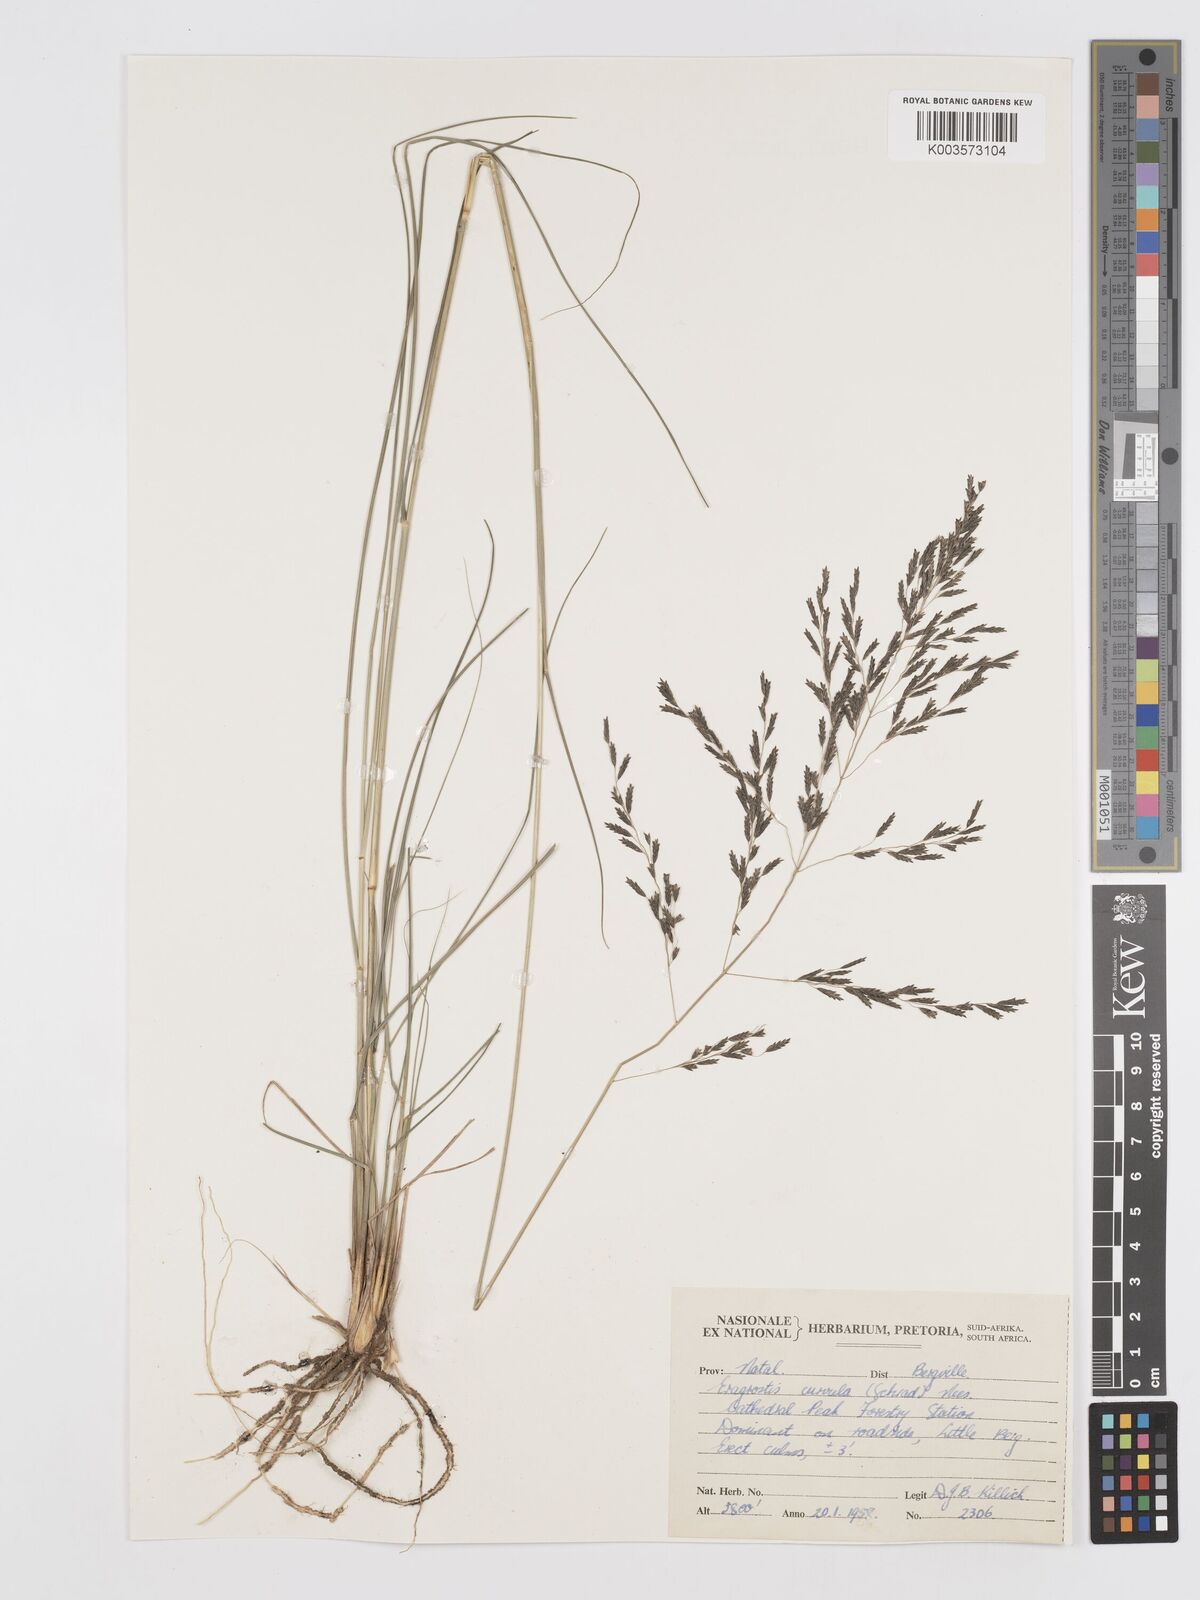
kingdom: Plantae
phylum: Tracheophyta
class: Liliopsida
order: Poales
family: Poaceae
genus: Eragrostis
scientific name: Eragrostis curvula
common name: African love-grass
